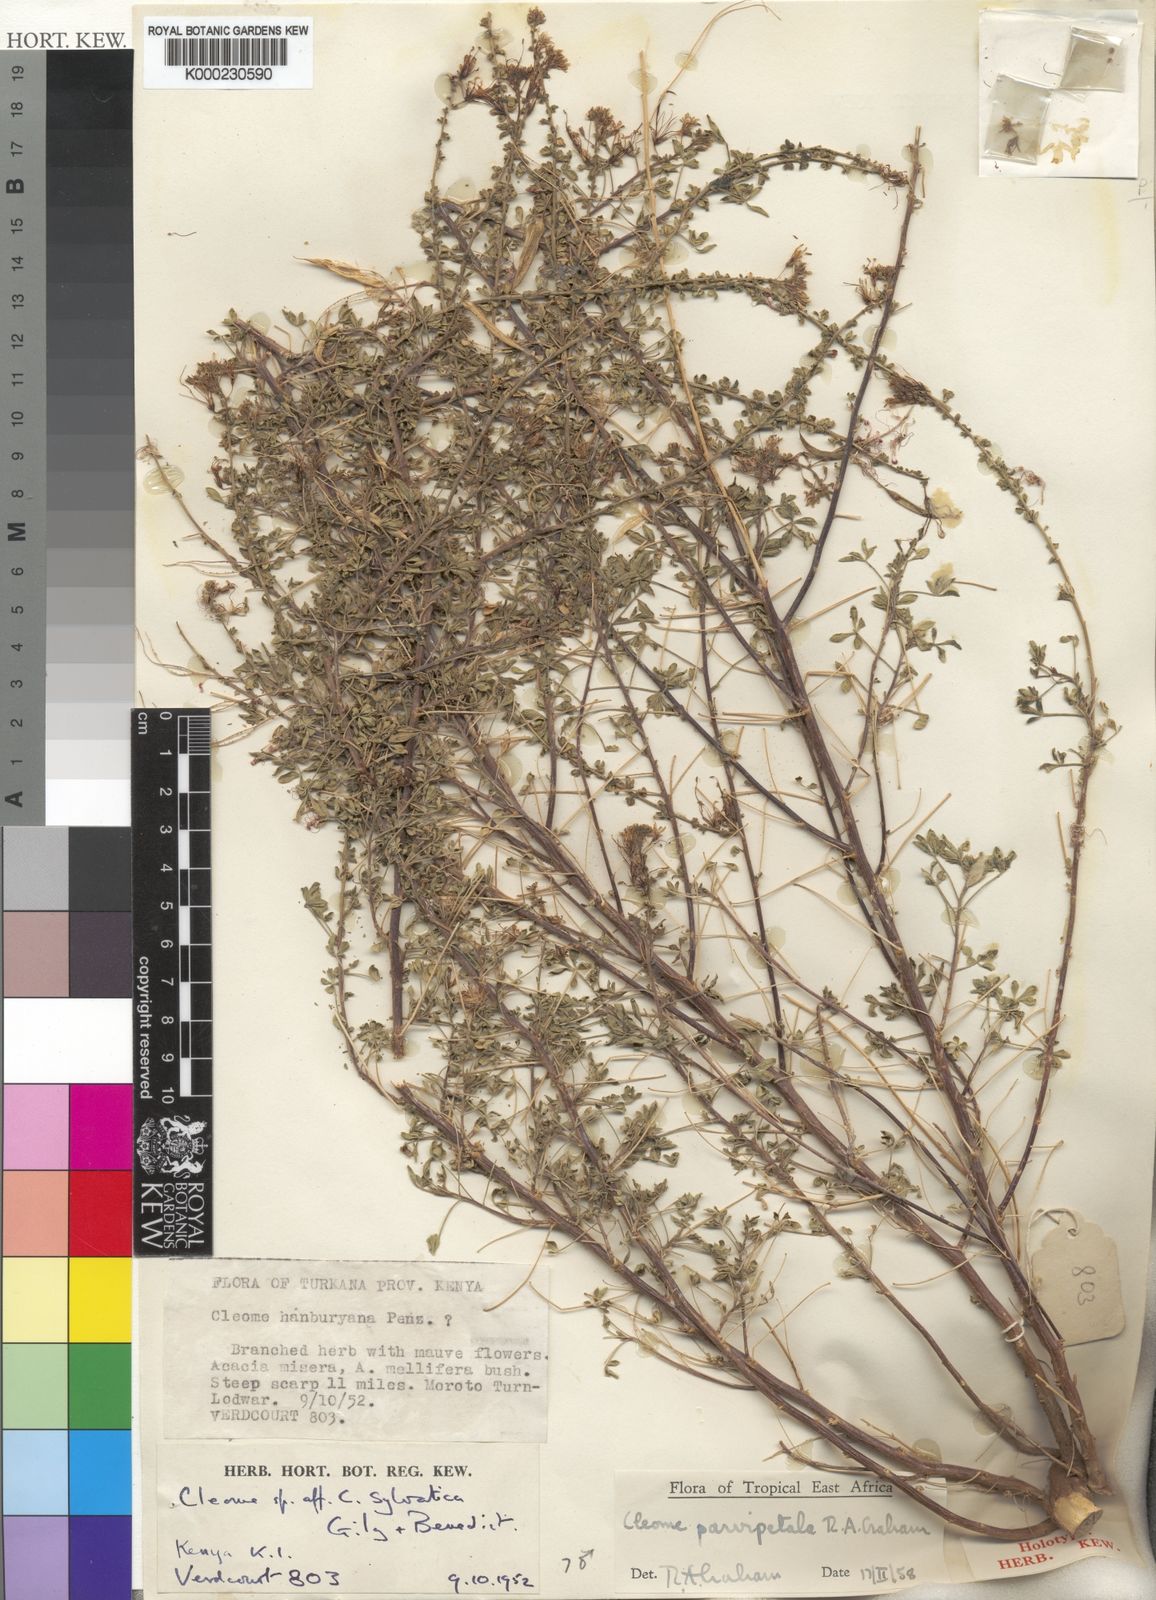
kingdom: Plantae
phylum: Tracheophyta
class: Magnoliopsida
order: Brassicales
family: Cleomaceae
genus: Cleome
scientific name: Cleome
